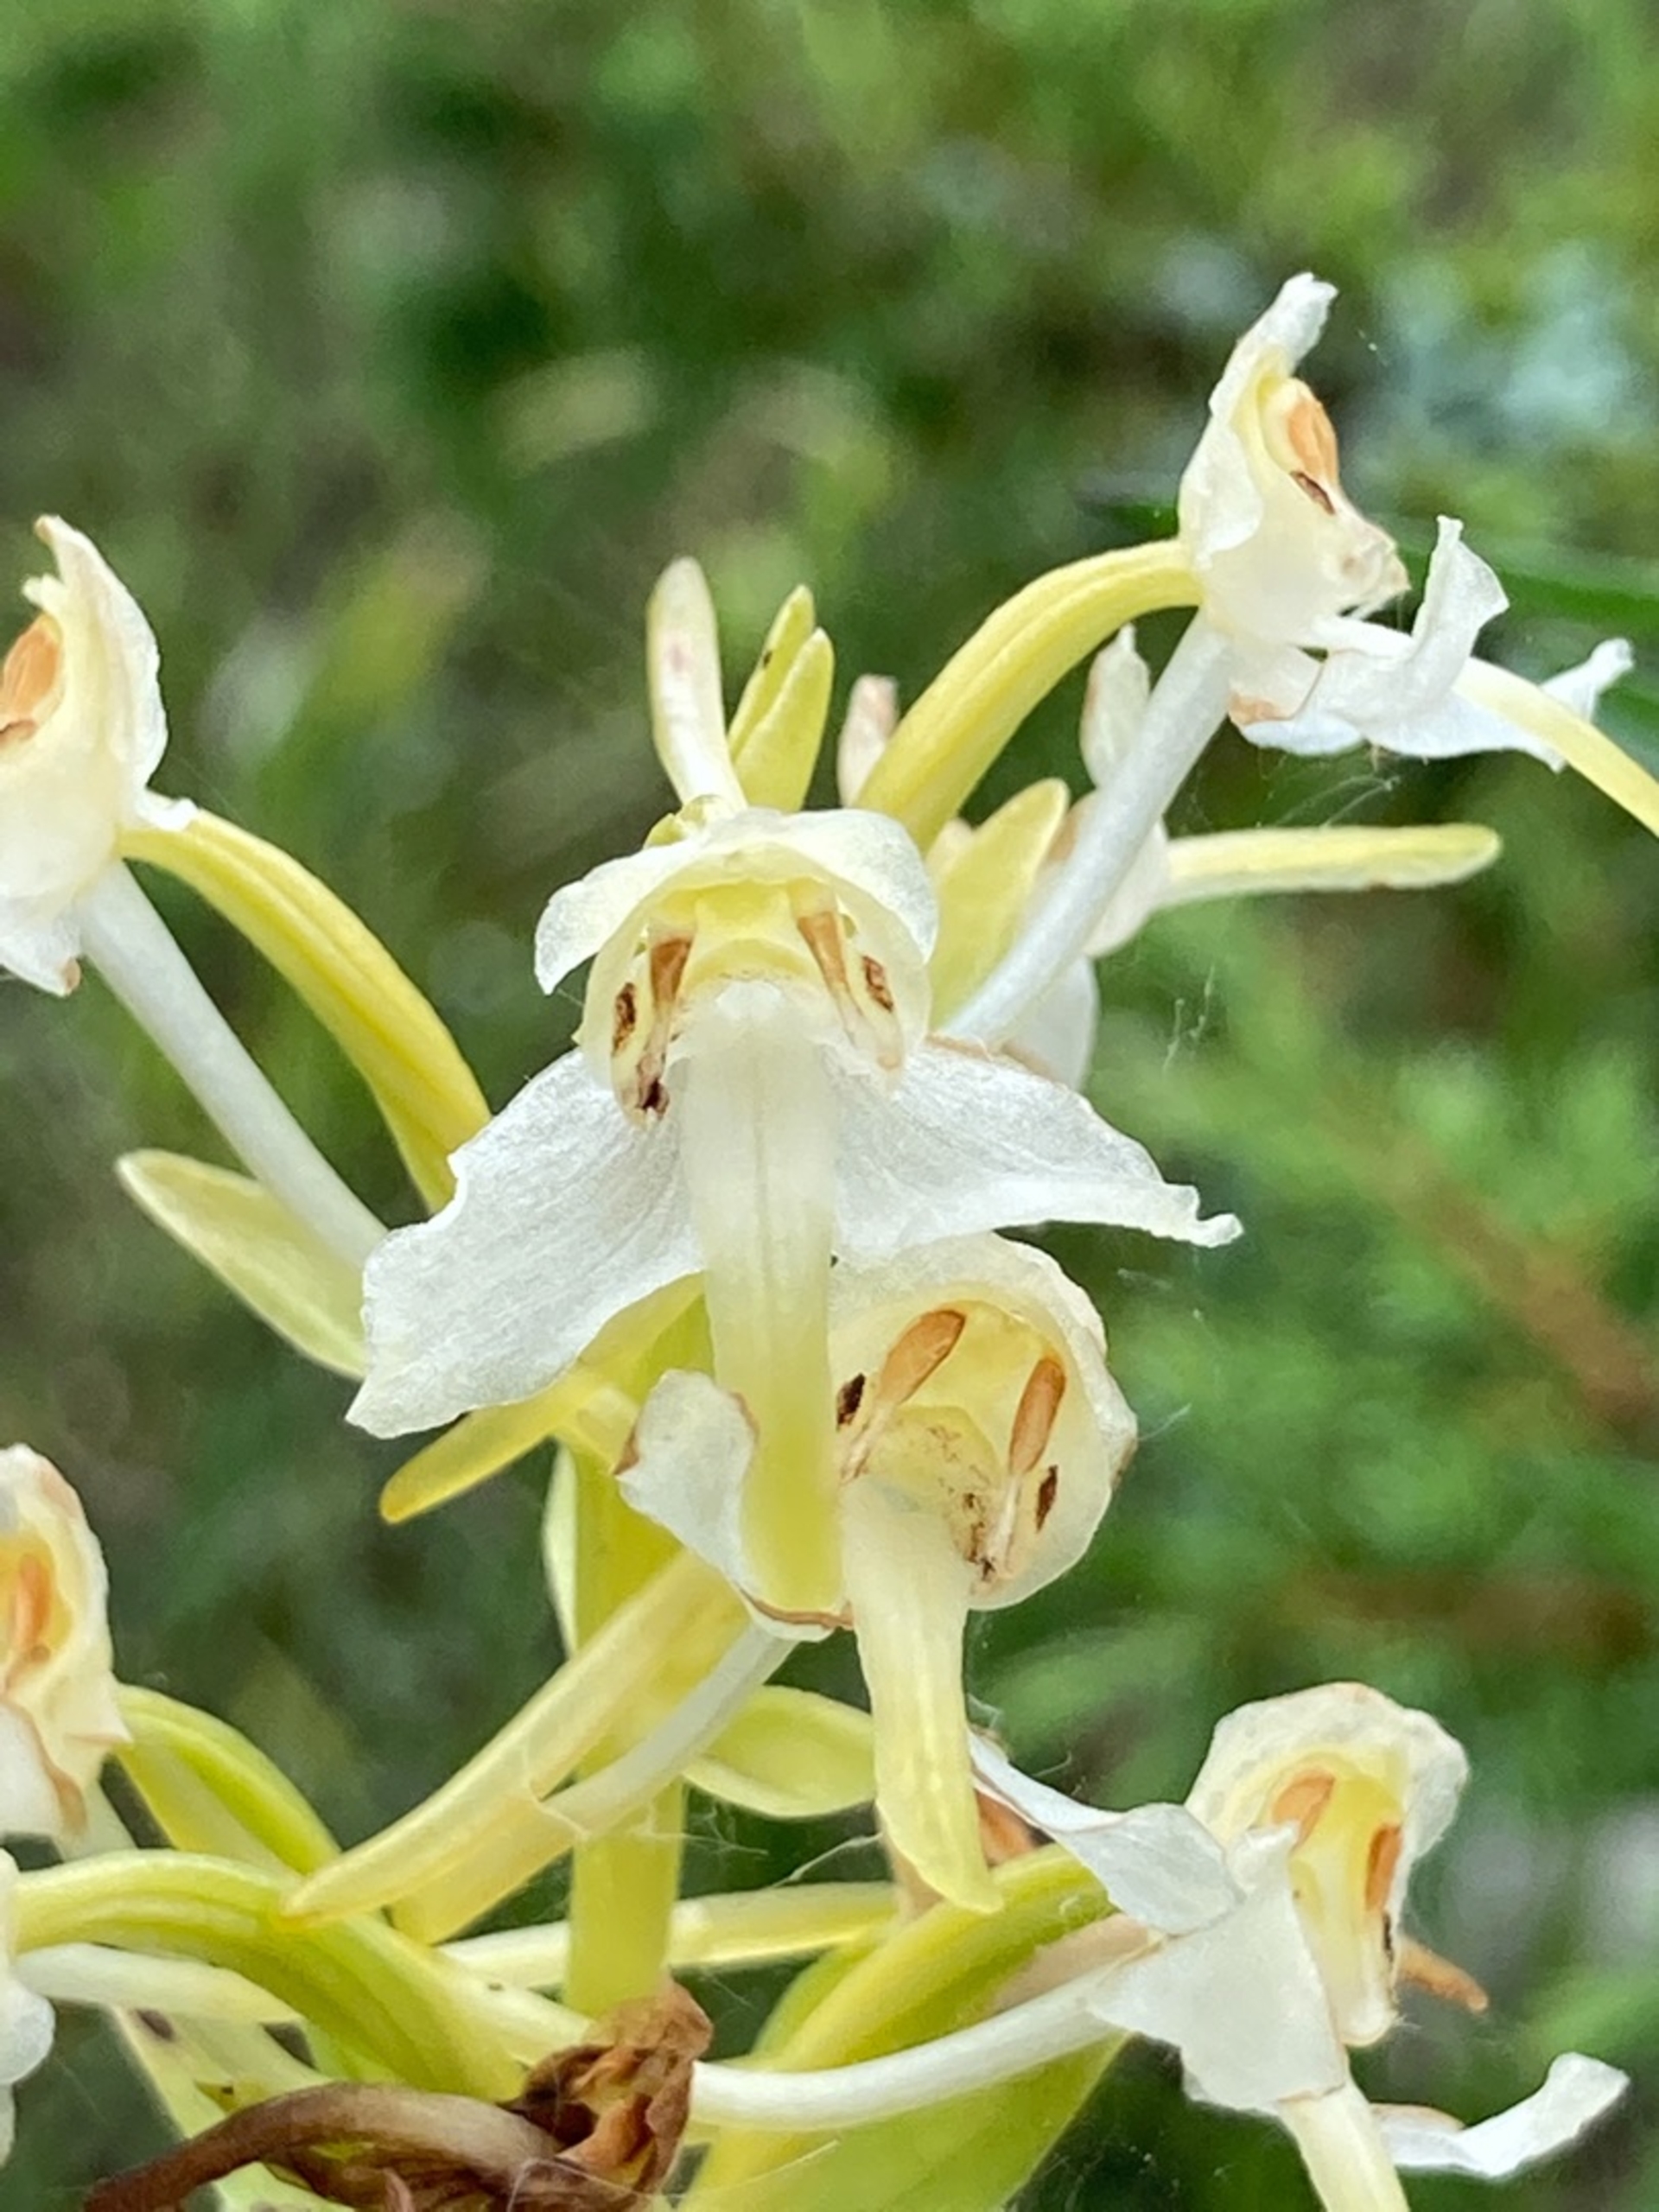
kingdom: Plantae
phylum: Tracheophyta
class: Liliopsida
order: Asparagales
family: Orchidaceae
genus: Platanthera
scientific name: Platanthera chlorantha
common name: Skov-gøgelilje
